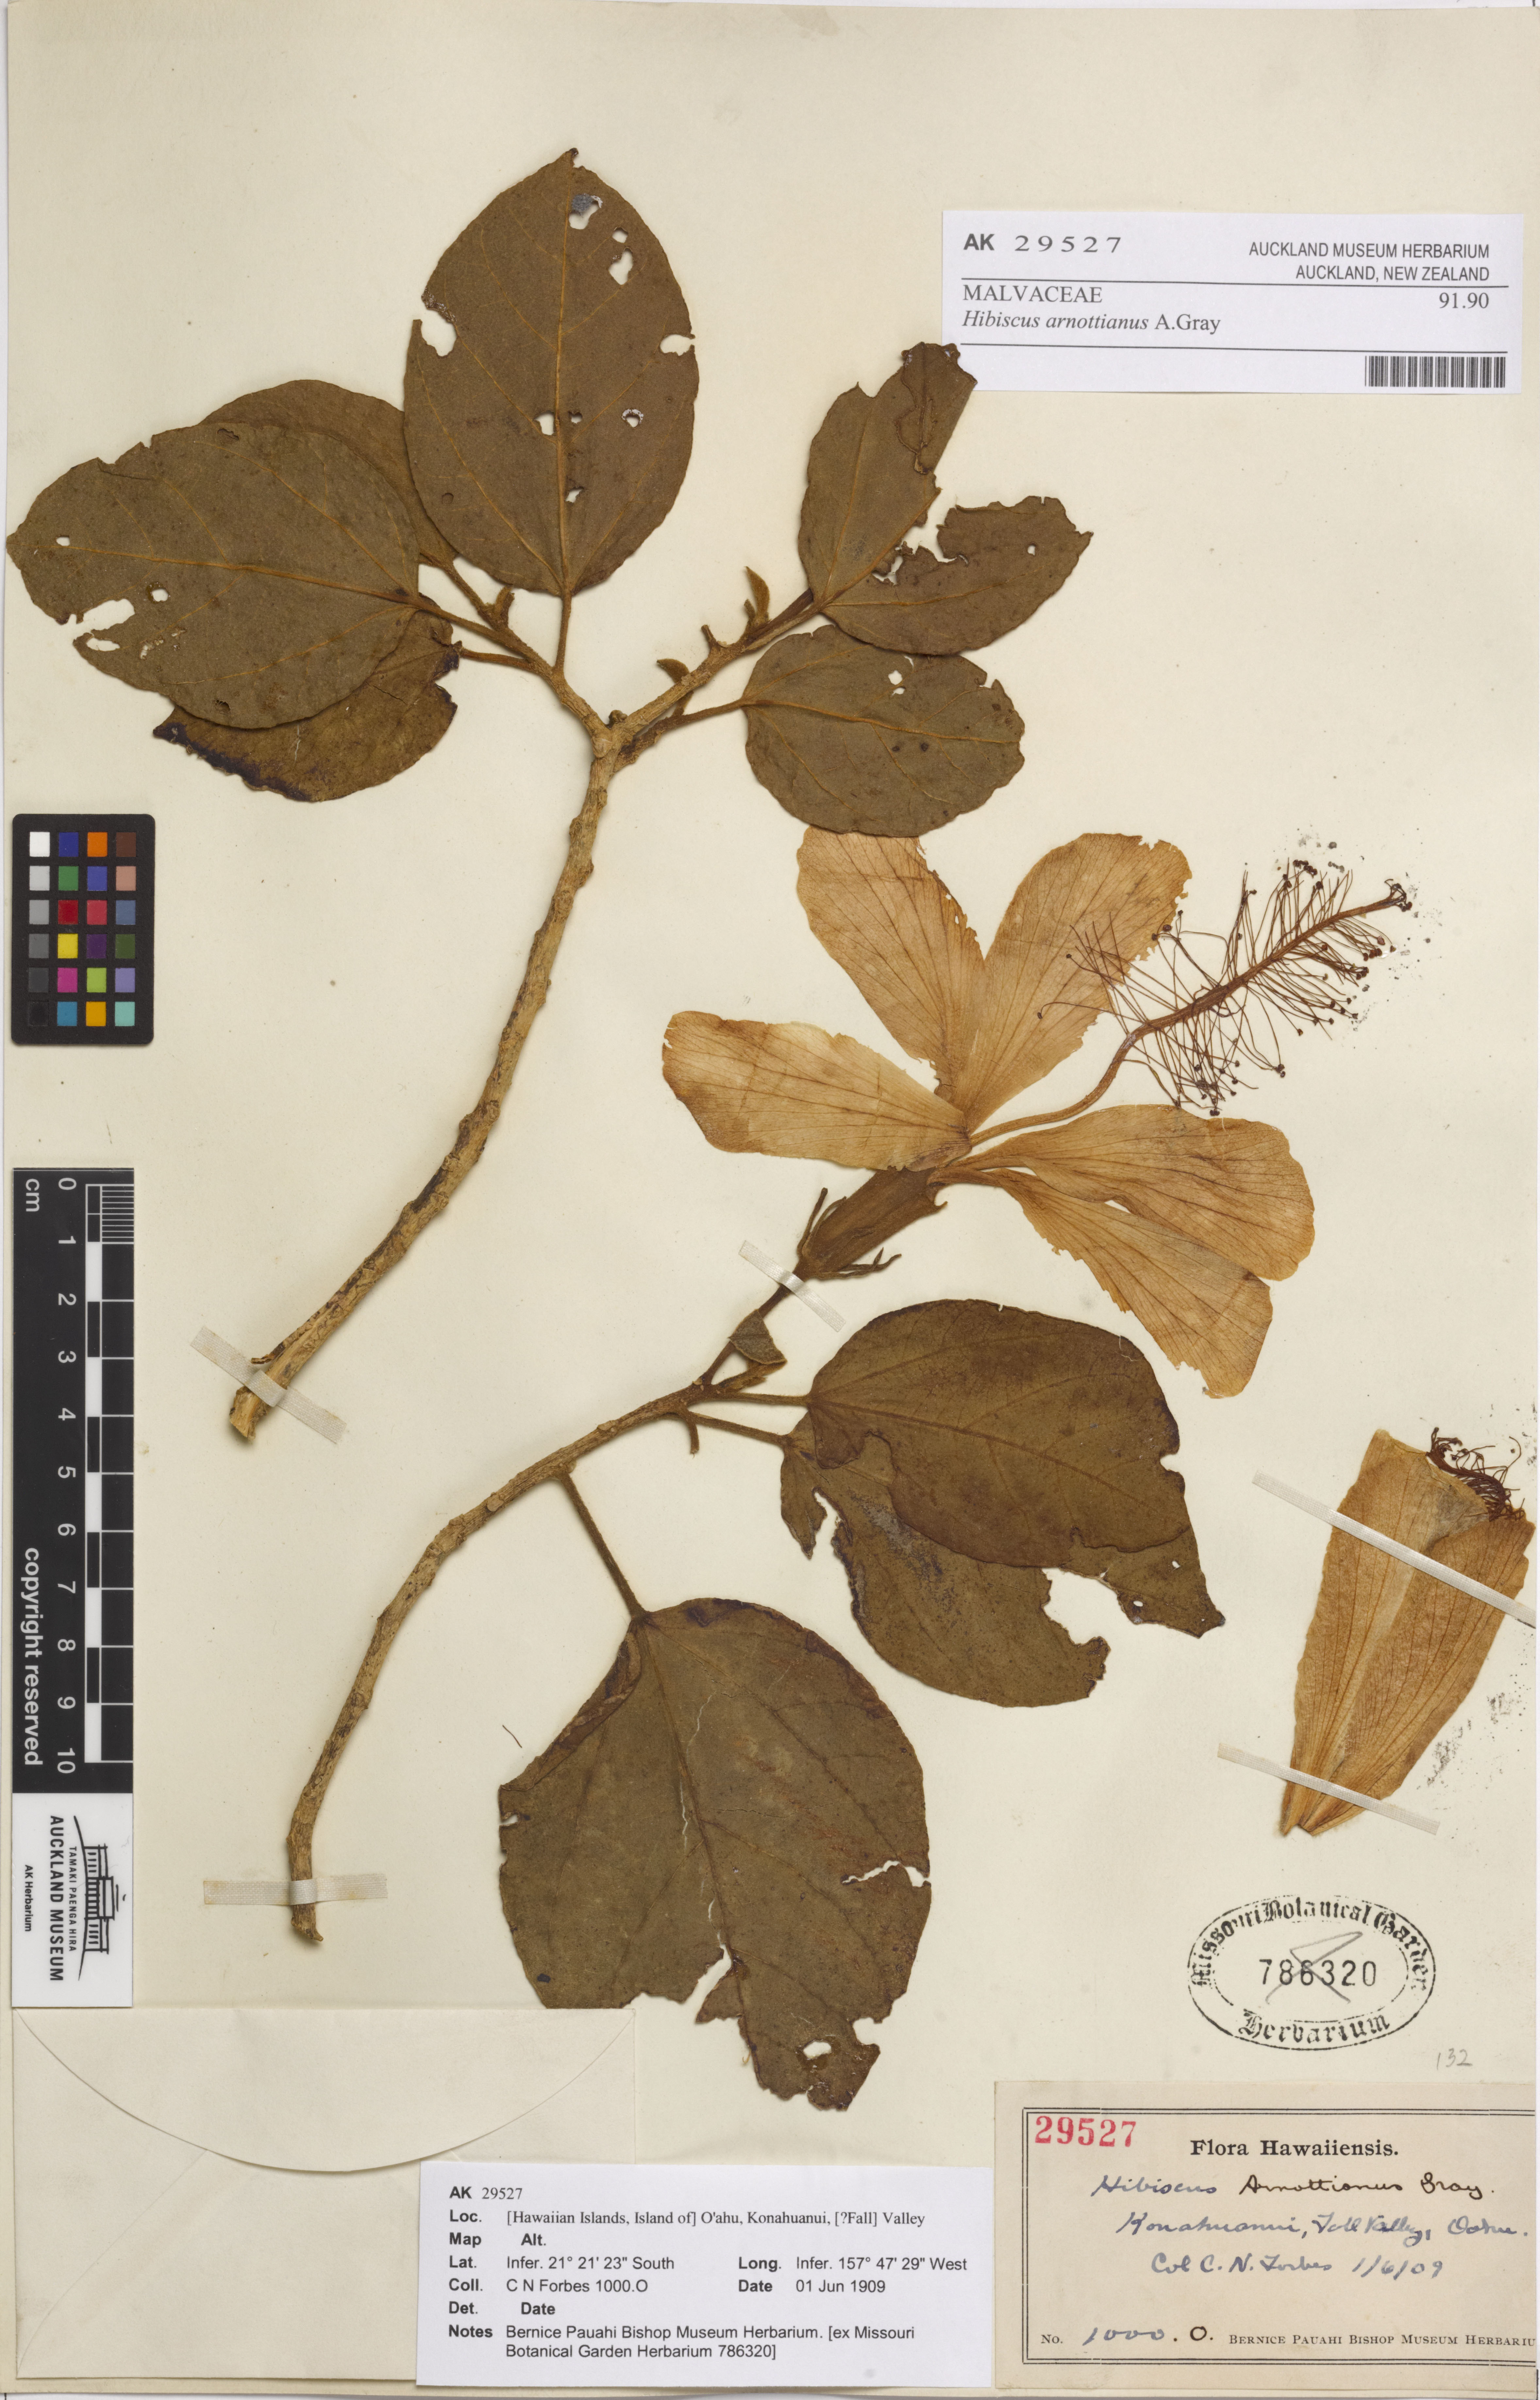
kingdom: Plantae
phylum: Tracheophyta
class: Magnoliopsida
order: Malvales
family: Malvaceae
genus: Hibiscus
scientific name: Hibiscus arnottianus
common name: White molokai hibiscus
